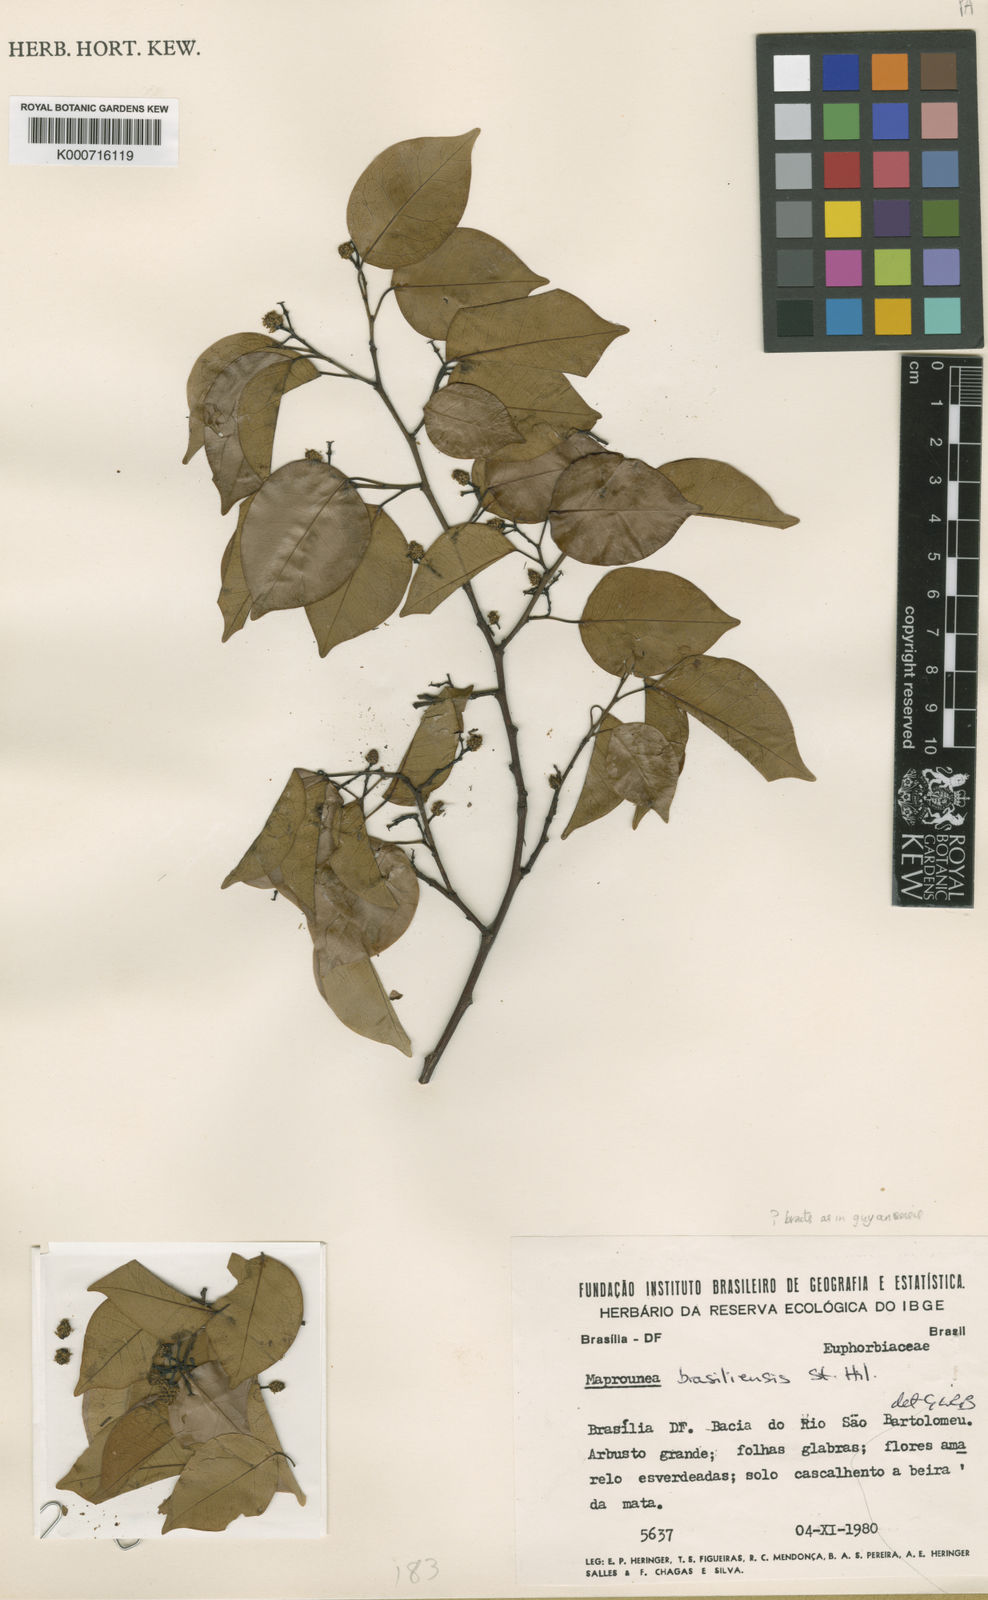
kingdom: Plantae
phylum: Tracheophyta
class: Magnoliopsida
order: Malpighiales
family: Euphorbiaceae
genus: Maprounea
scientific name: Maprounea brasiliensis
